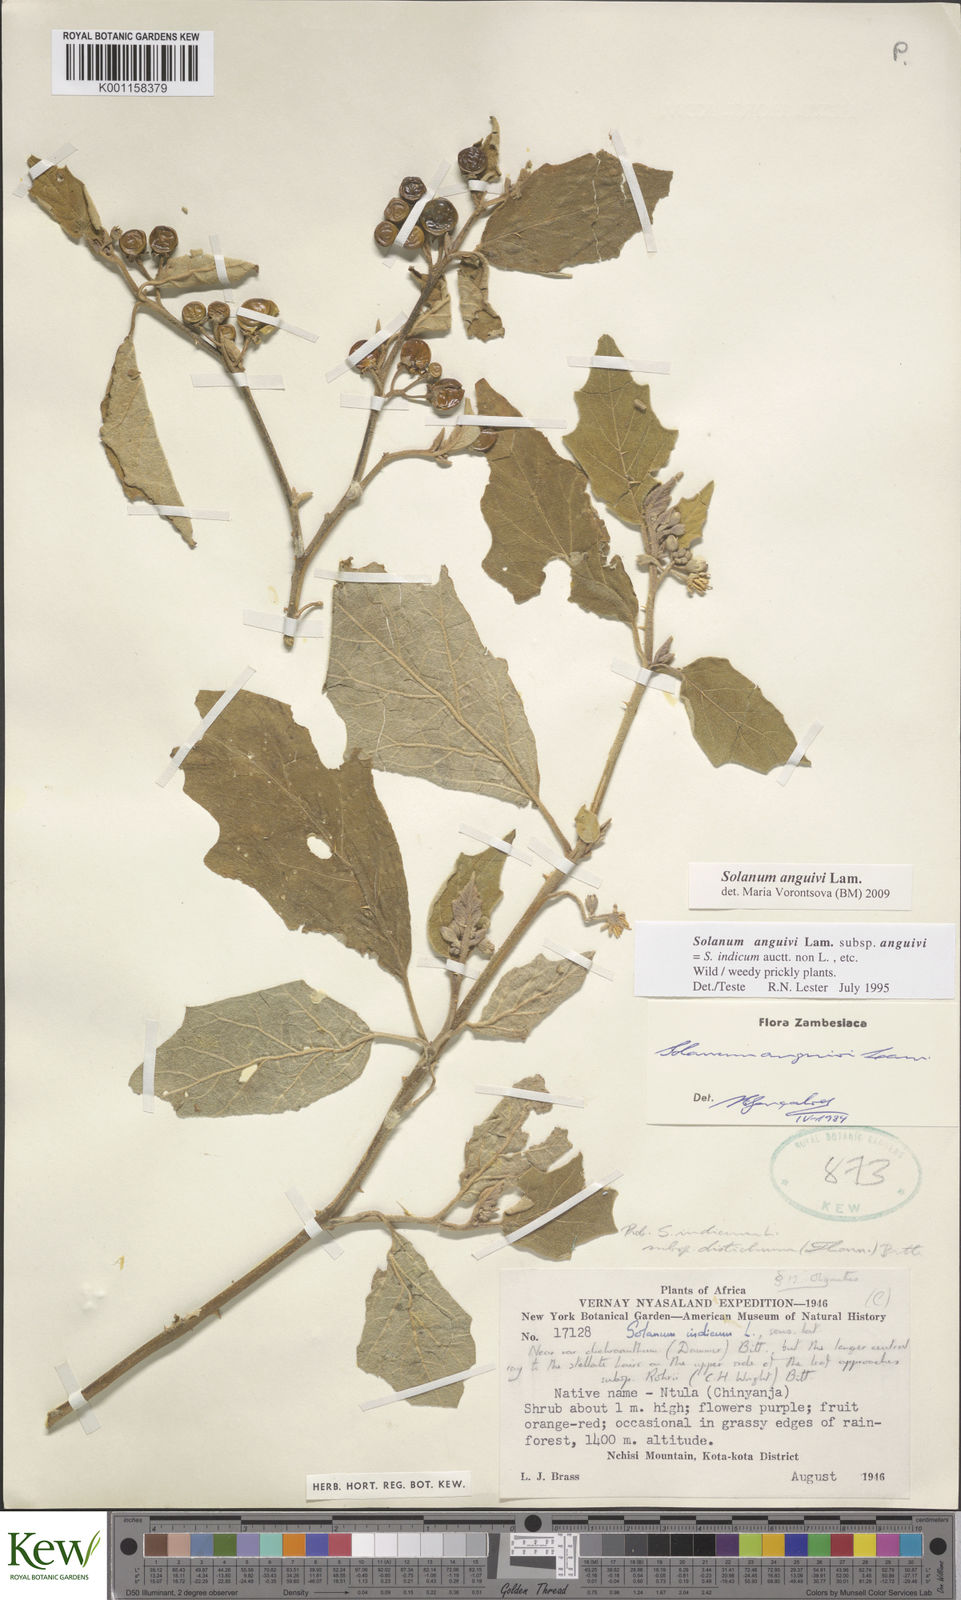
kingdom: Plantae
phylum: Tracheophyta
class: Magnoliopsida
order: Solanales
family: Solanaceae
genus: Solanum
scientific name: Solanum anguivi
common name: Forest bitterberry
